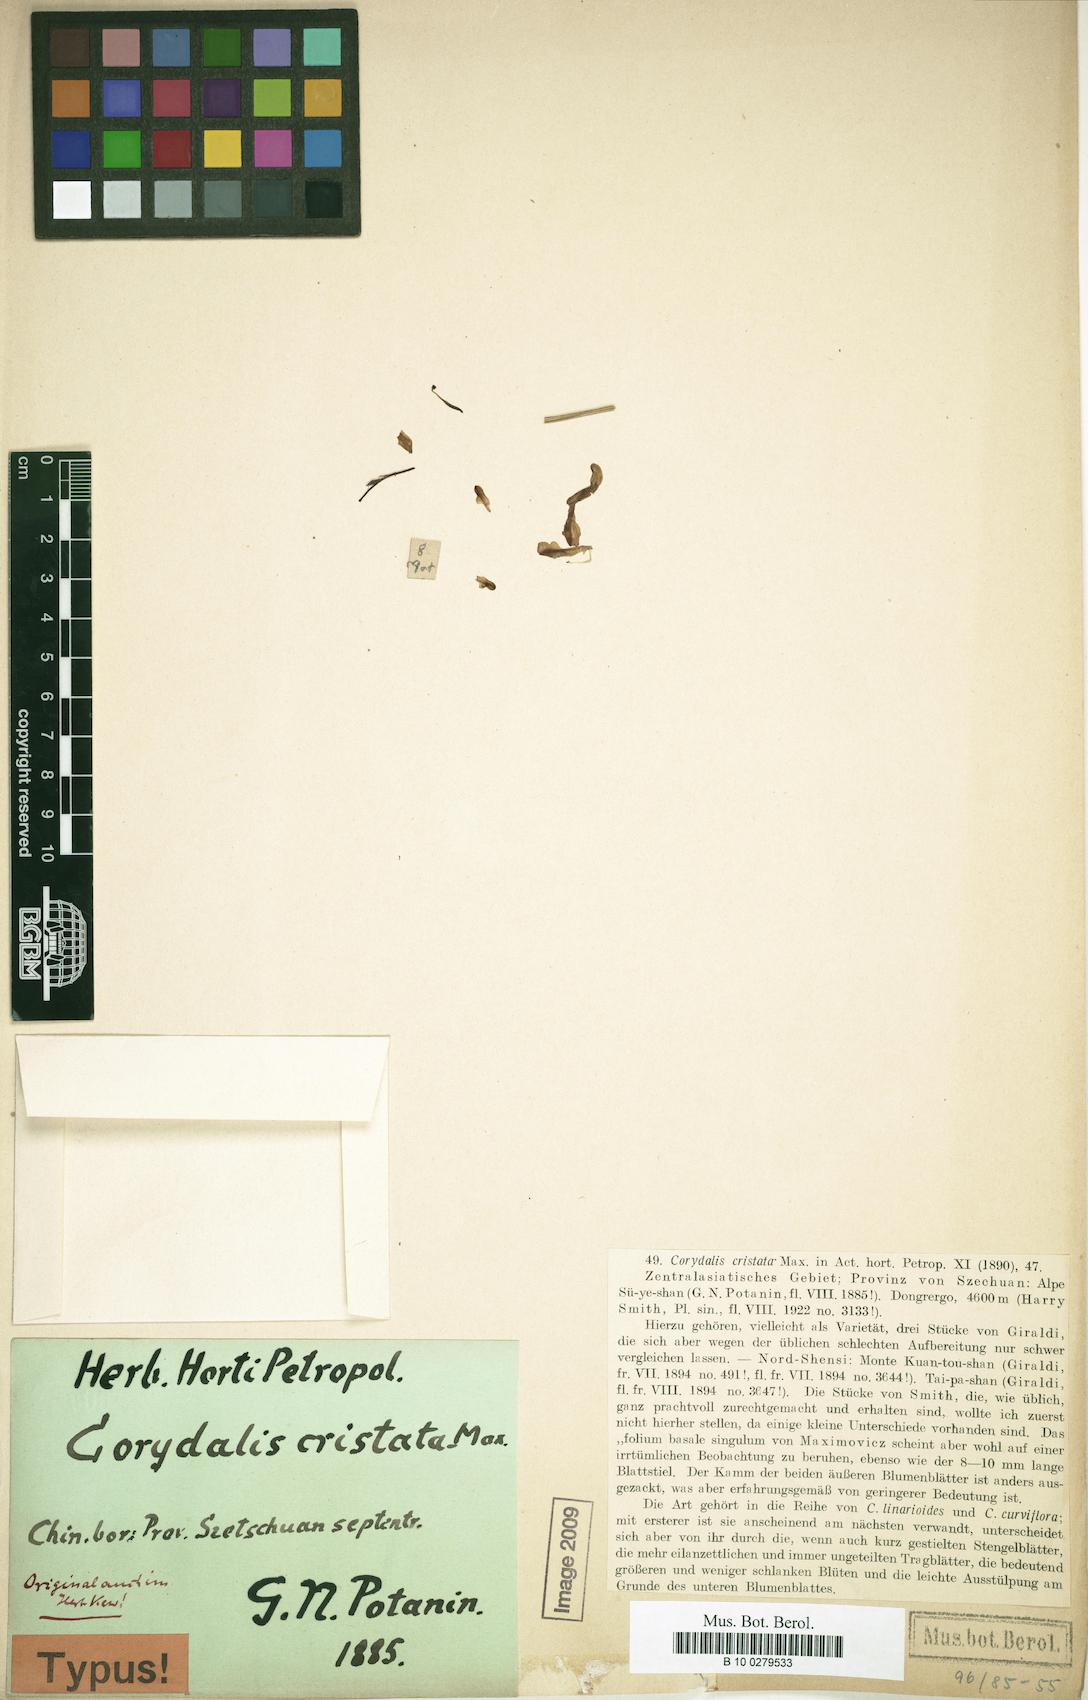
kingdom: Plantae
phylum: Tracheophyta
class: Magnoliopsida
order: Ranunculales
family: Papaveraceae
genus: Corydalis
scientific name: Corydalis cristata
